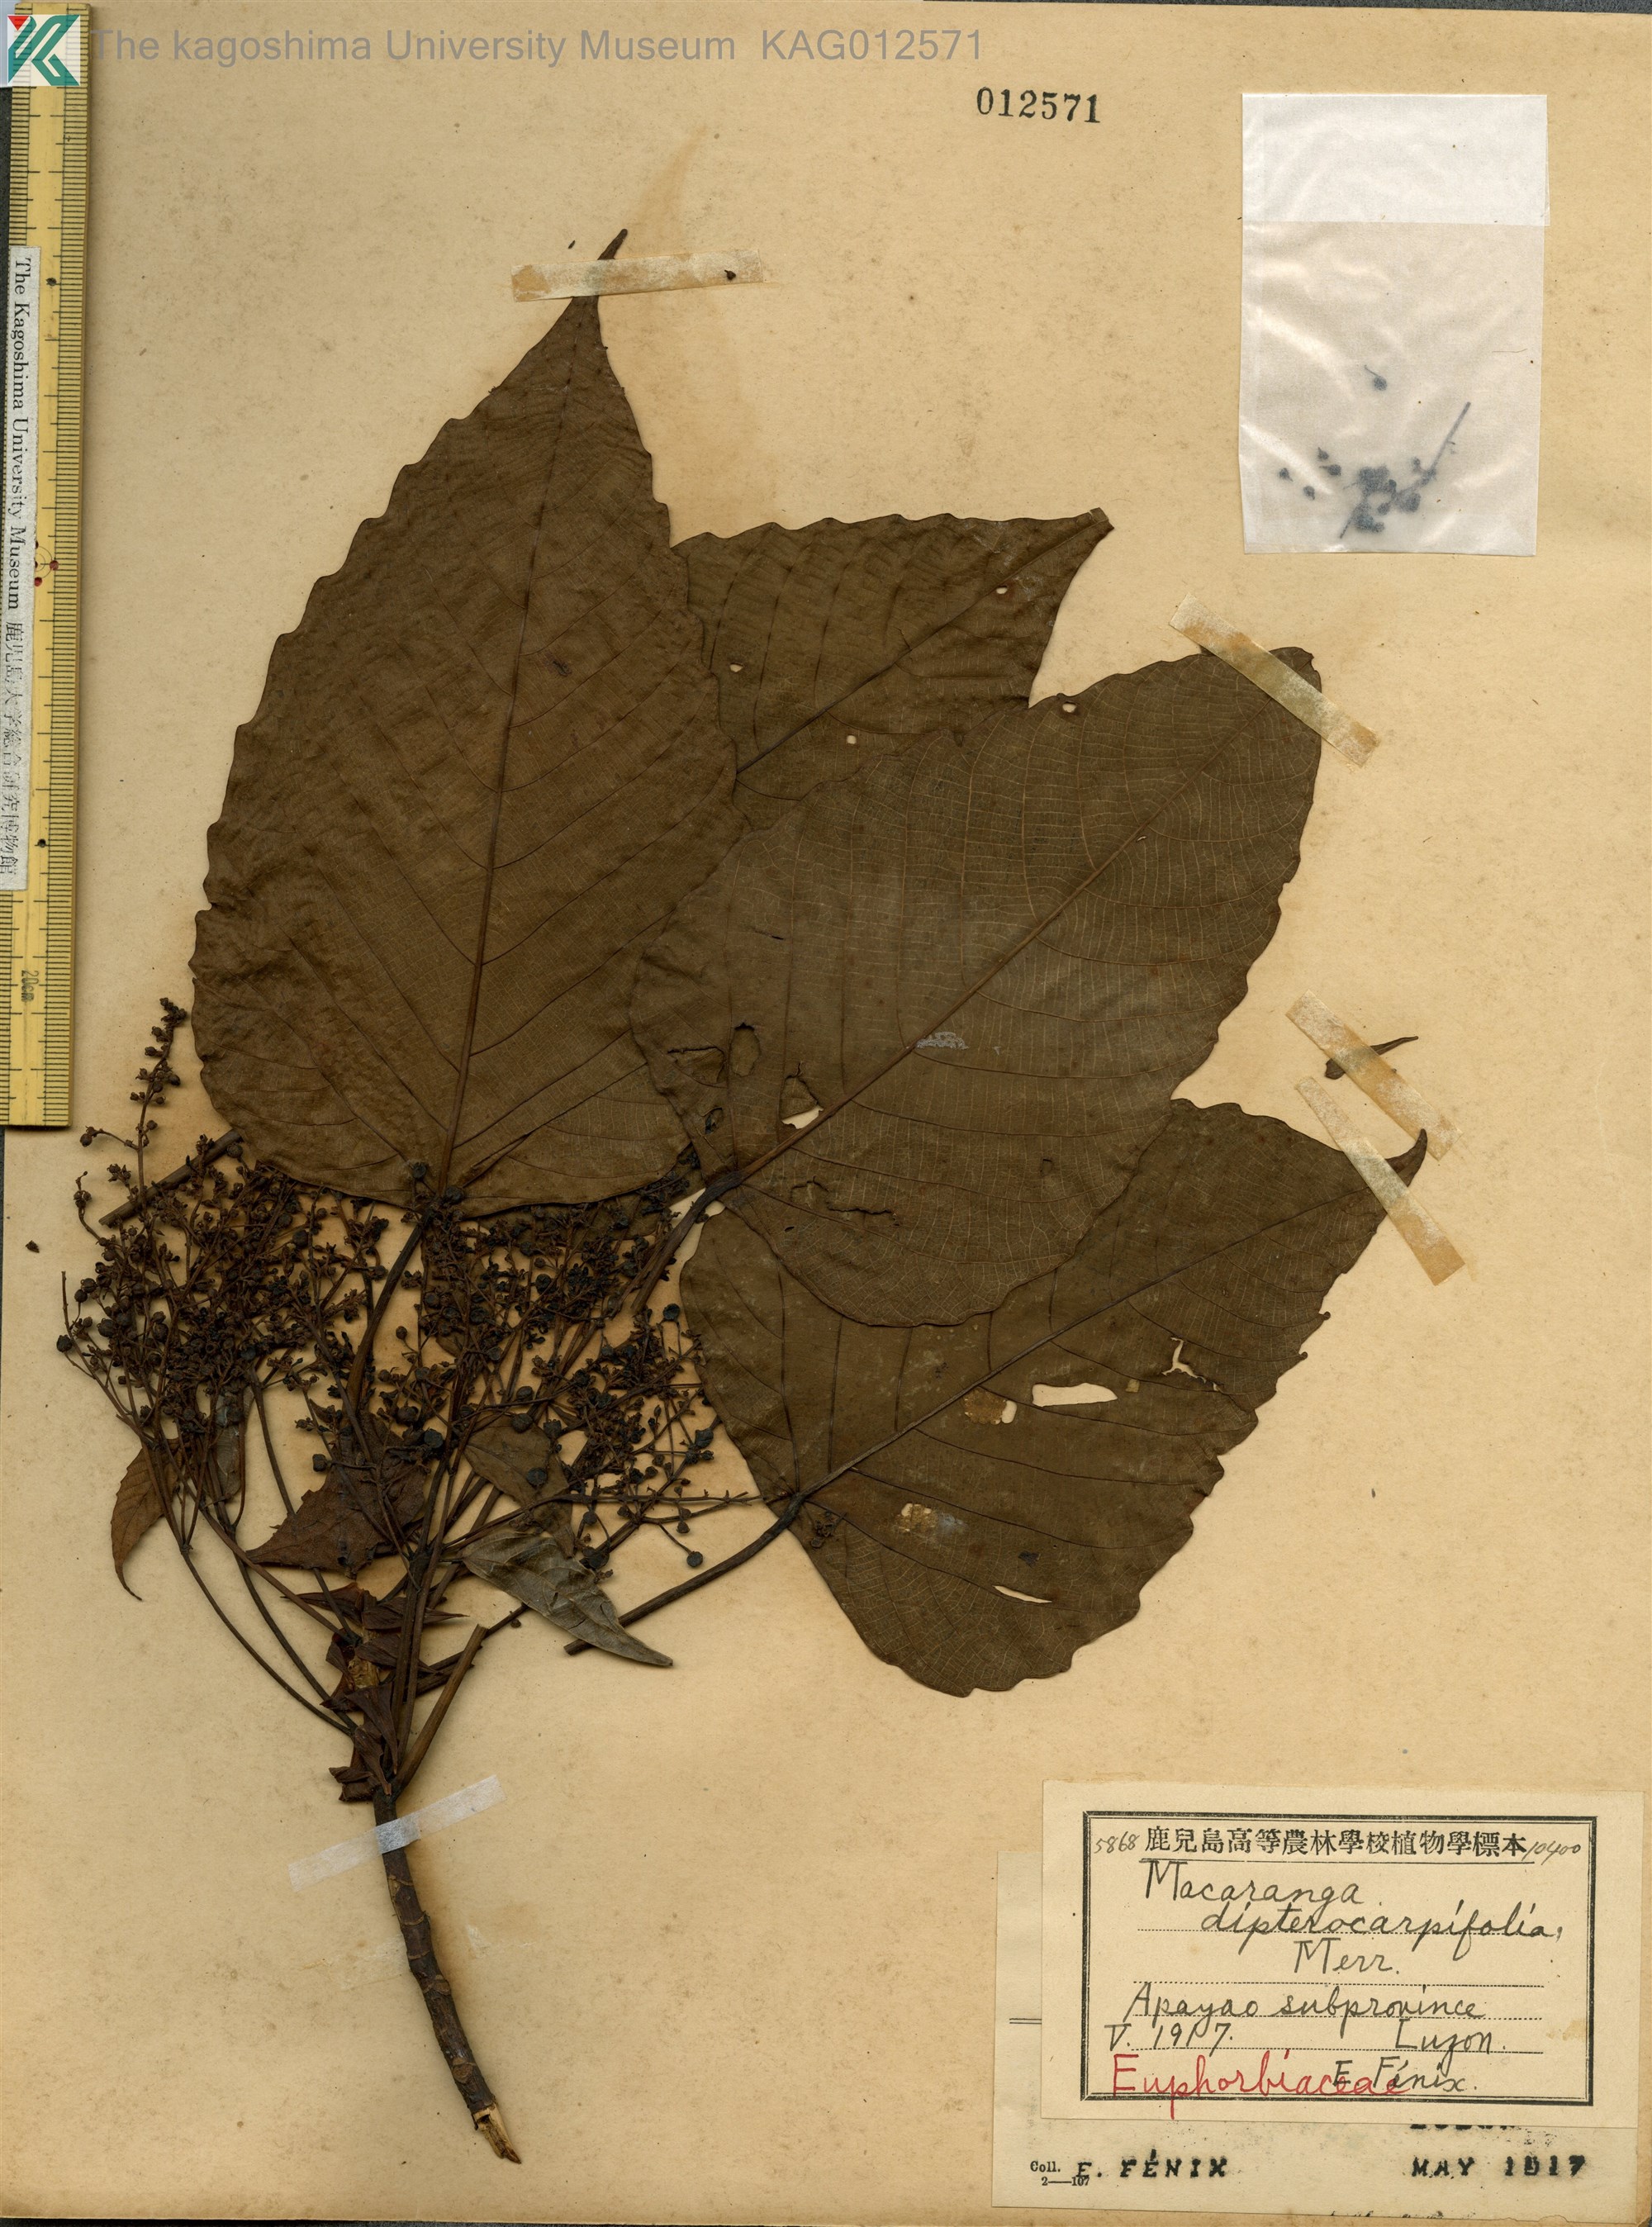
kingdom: Plantae
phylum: Tracheophyta
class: Magnoliopsida
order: Malpighiales
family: Euphorbiaceae
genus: Macaranga
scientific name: Macaranga sinensis
